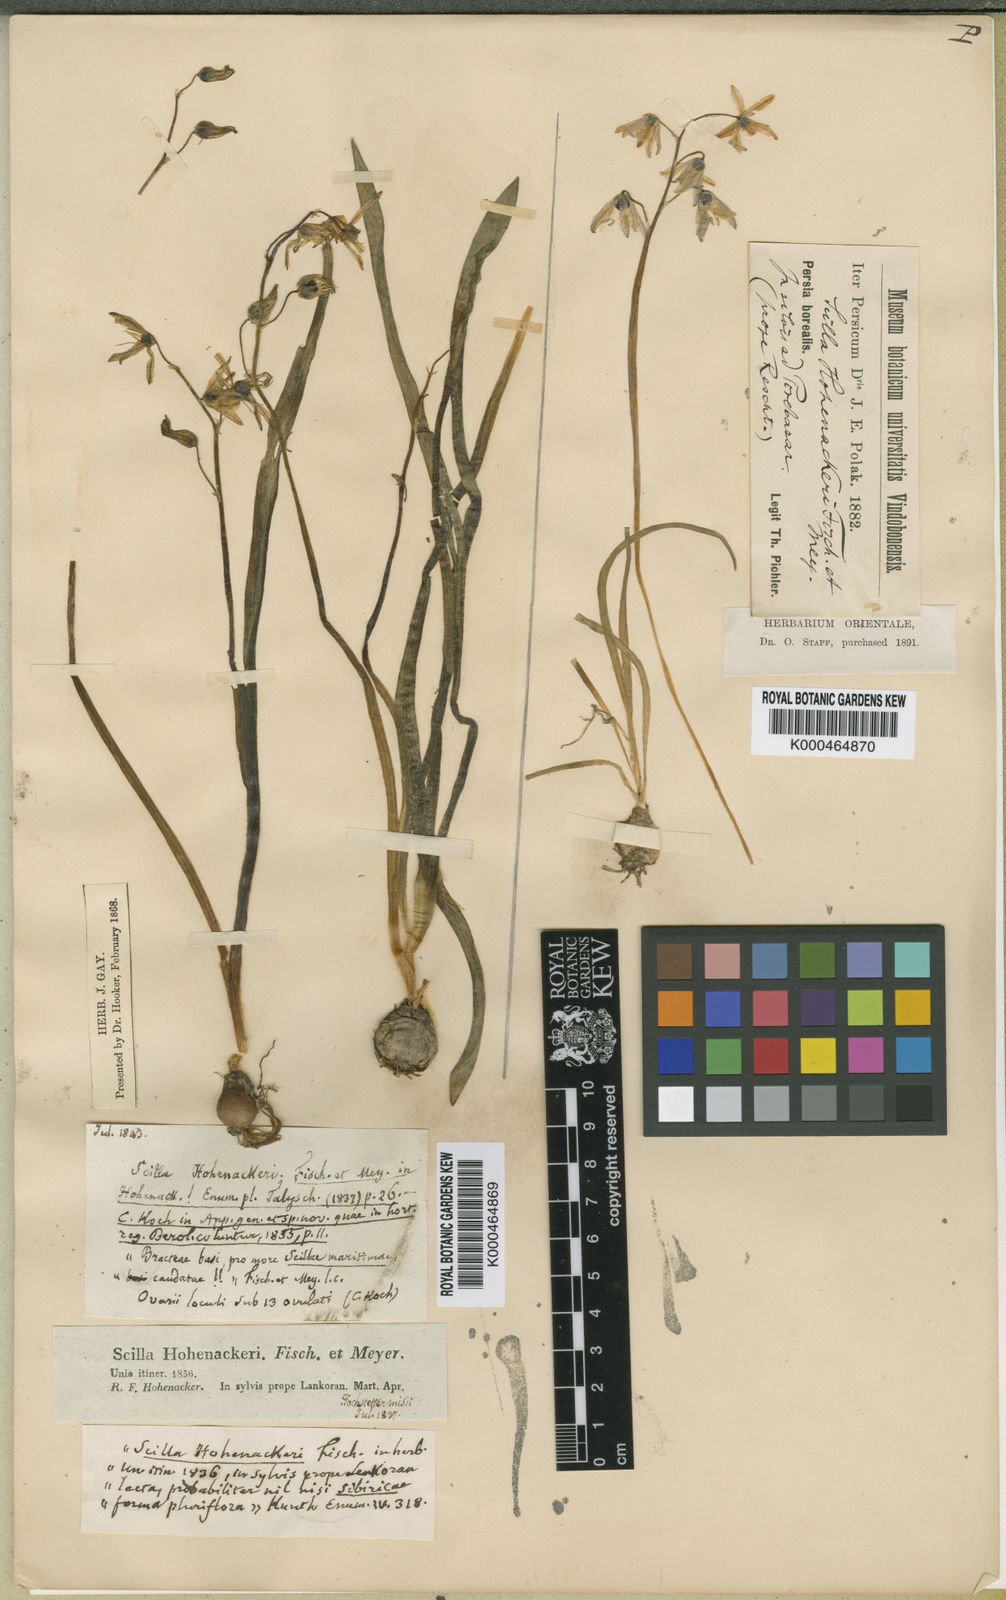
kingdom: Plantae
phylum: Tracheophyta
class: Liliopsida
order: Asparagales
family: Asparagaceae
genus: Fessia
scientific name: Fessia hohenackeri
